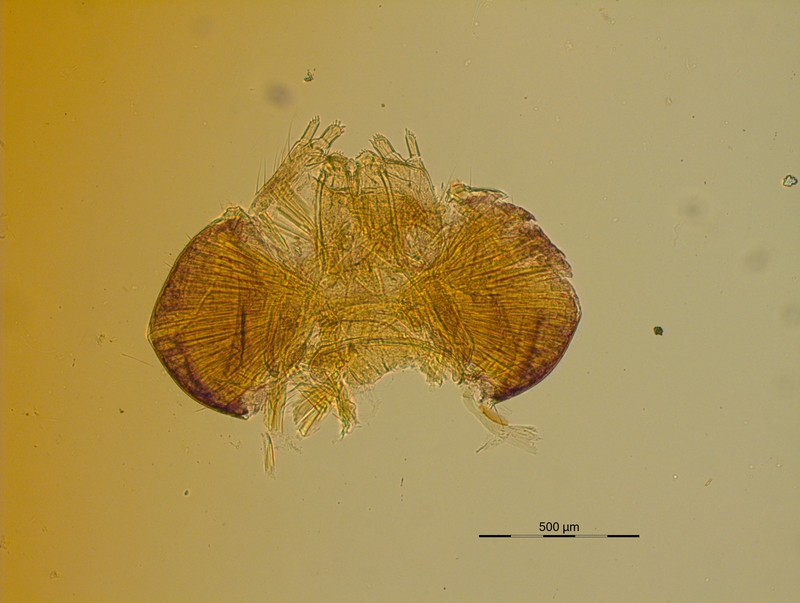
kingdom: Animalia
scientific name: Animalia
